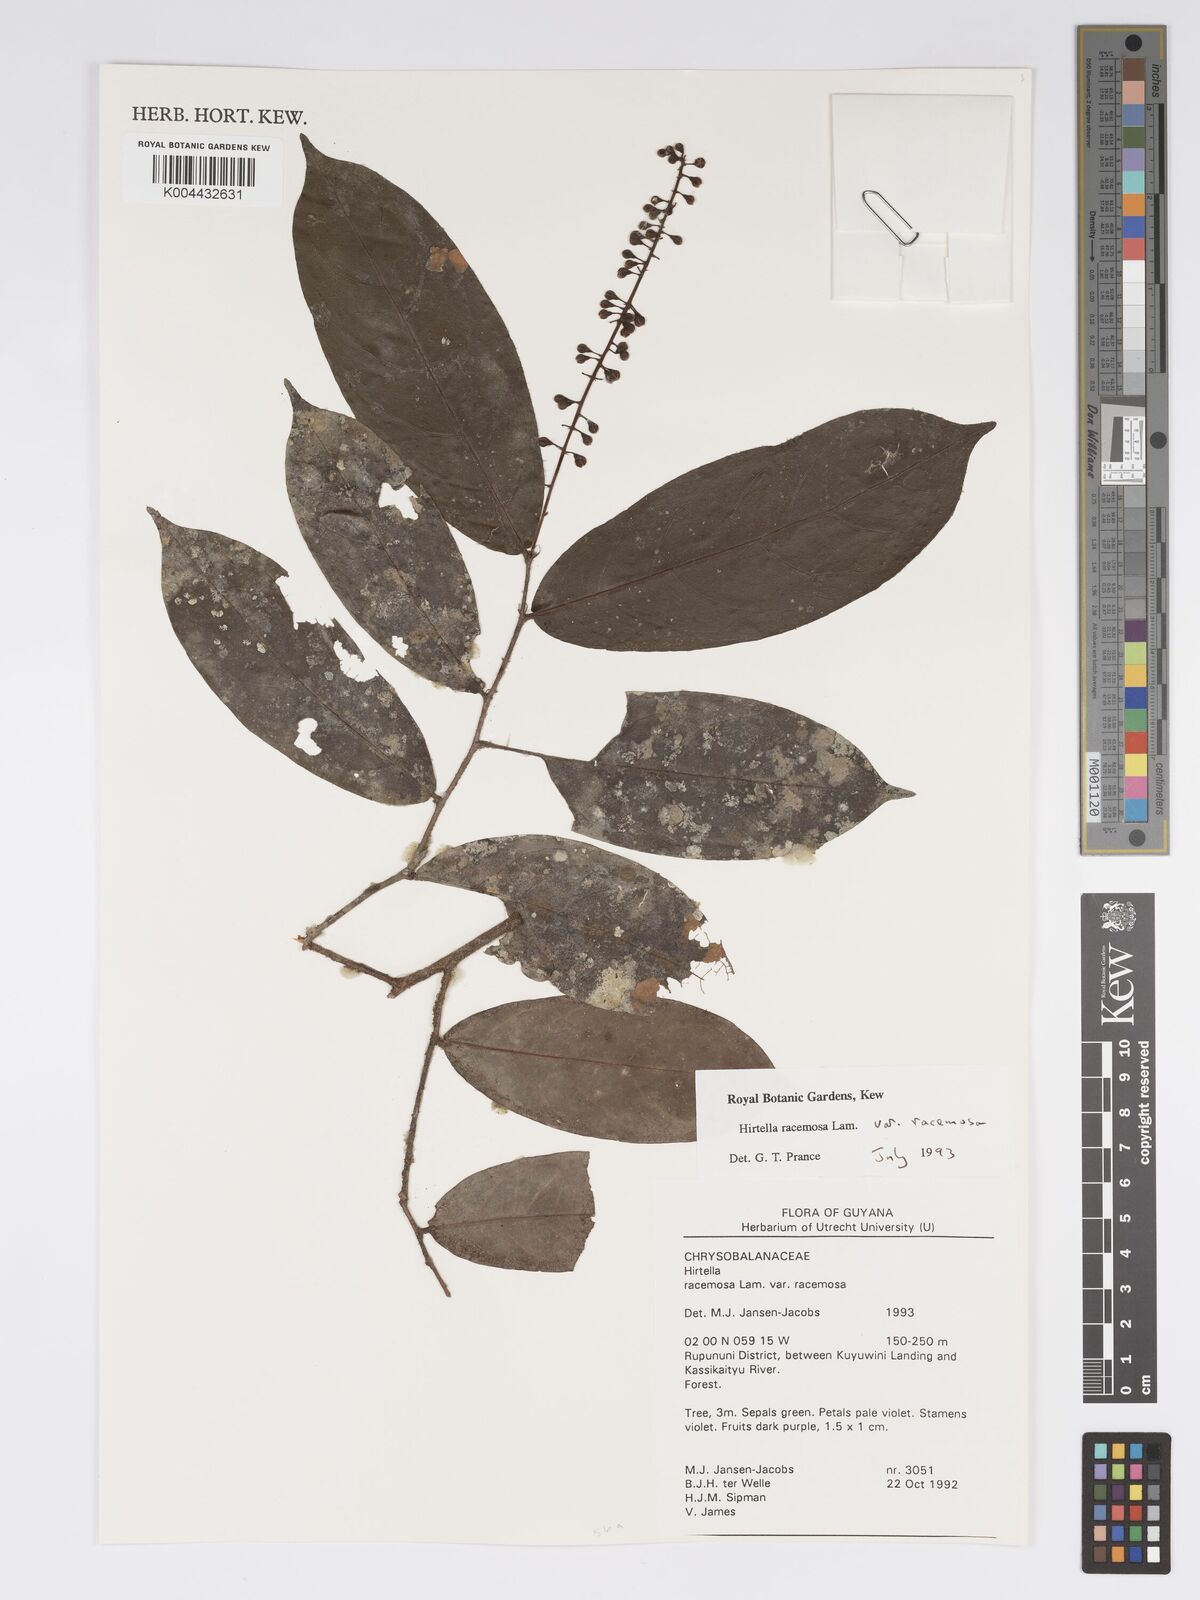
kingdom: Plantae
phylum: Tracheophyta
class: Magnoliopsida
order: Malpighiales
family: Chrysobalanaceae
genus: Hirtella
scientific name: Hirtella racemosa
